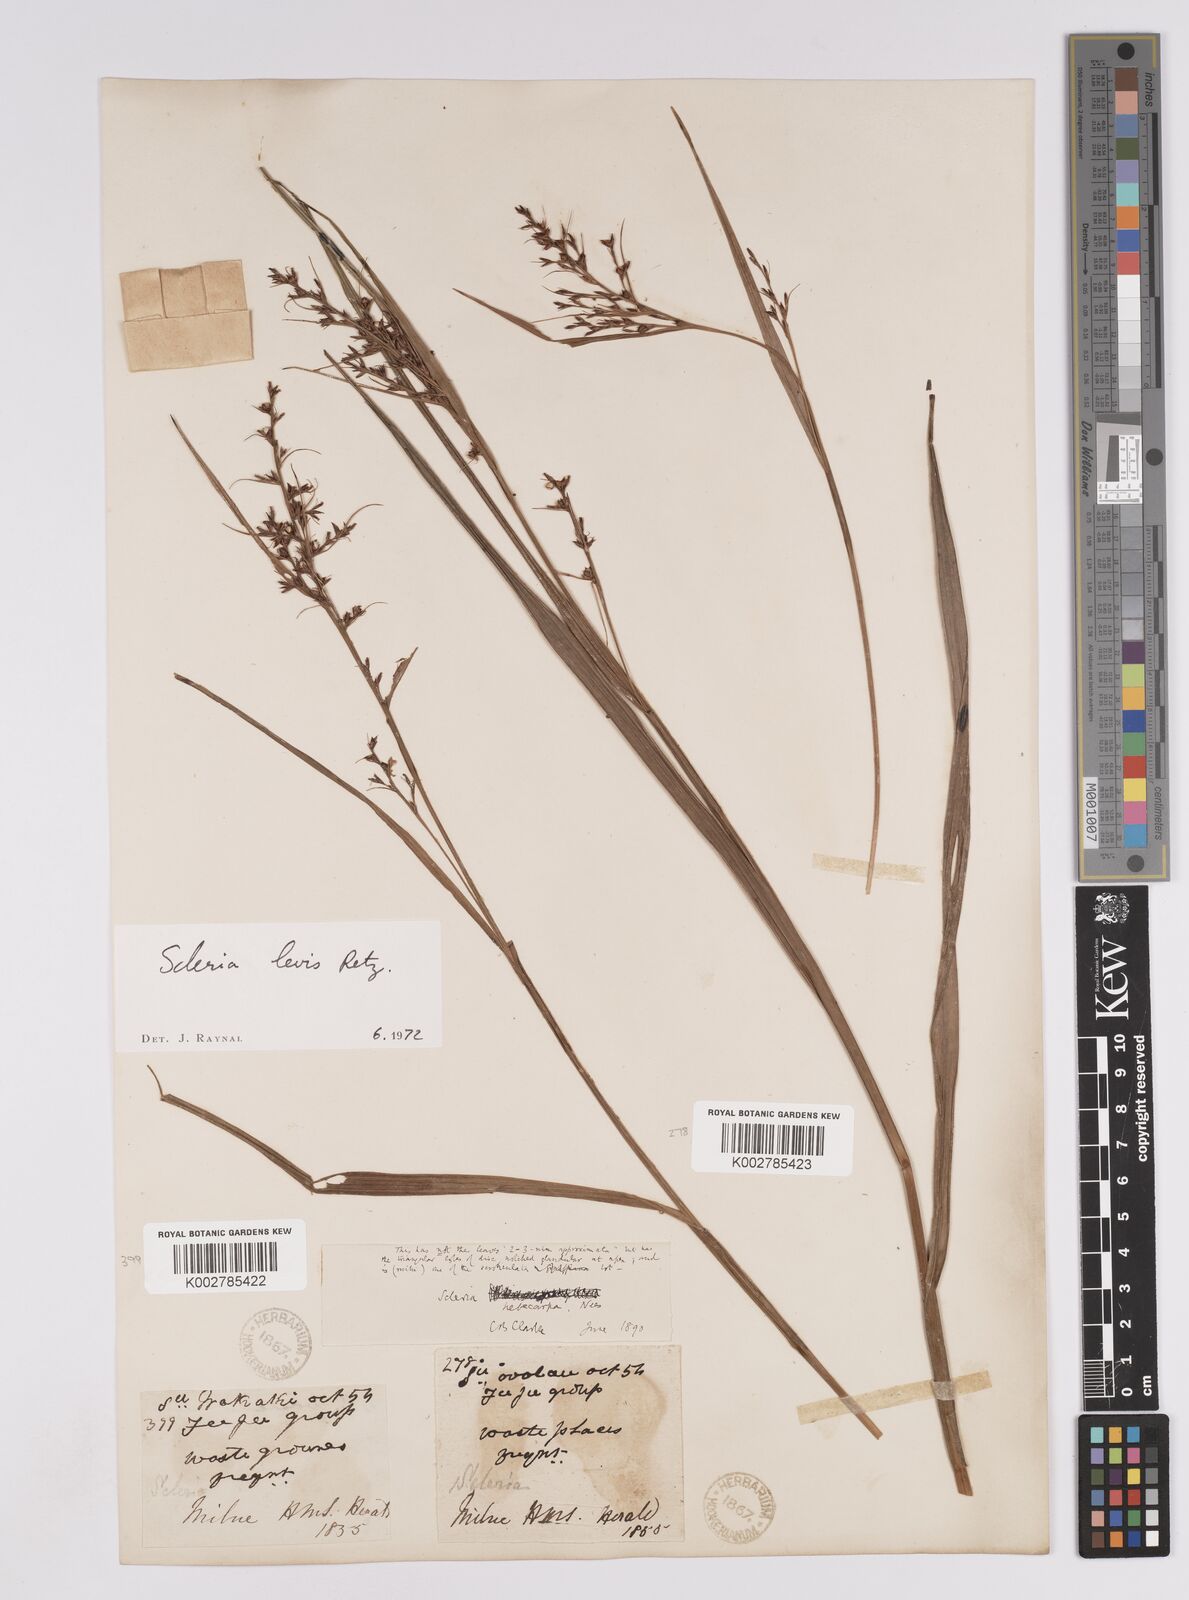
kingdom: Plantae
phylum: Tracheophyta
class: Liliopsida
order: Poales
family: Cyperaceae
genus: Scleria
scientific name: Scleria levis
